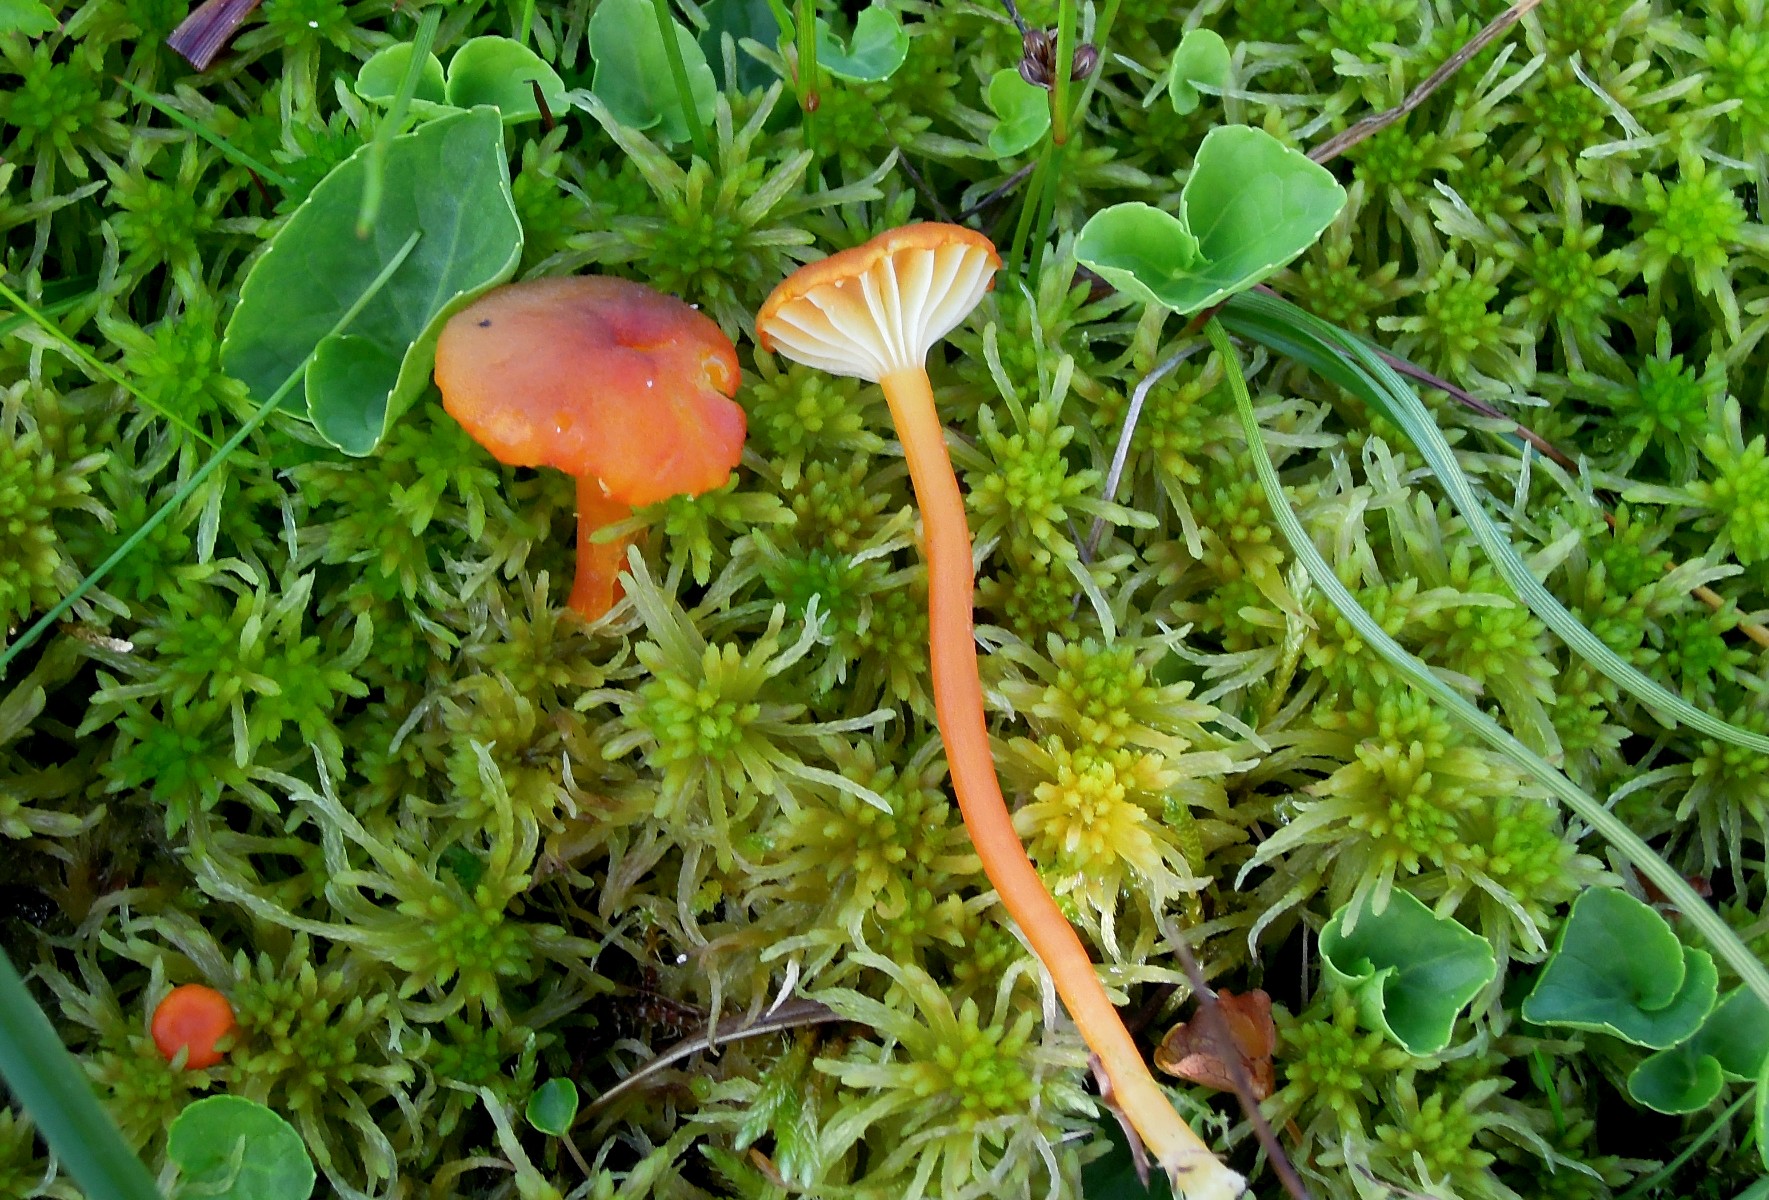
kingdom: Fungi
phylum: Basidiomycota
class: Agaricomycetes
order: Agaricales
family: Hygrophoraceae
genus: Hygrocybe
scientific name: Hygrocybe coccineocrenata
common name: tørvemos-vokshat
